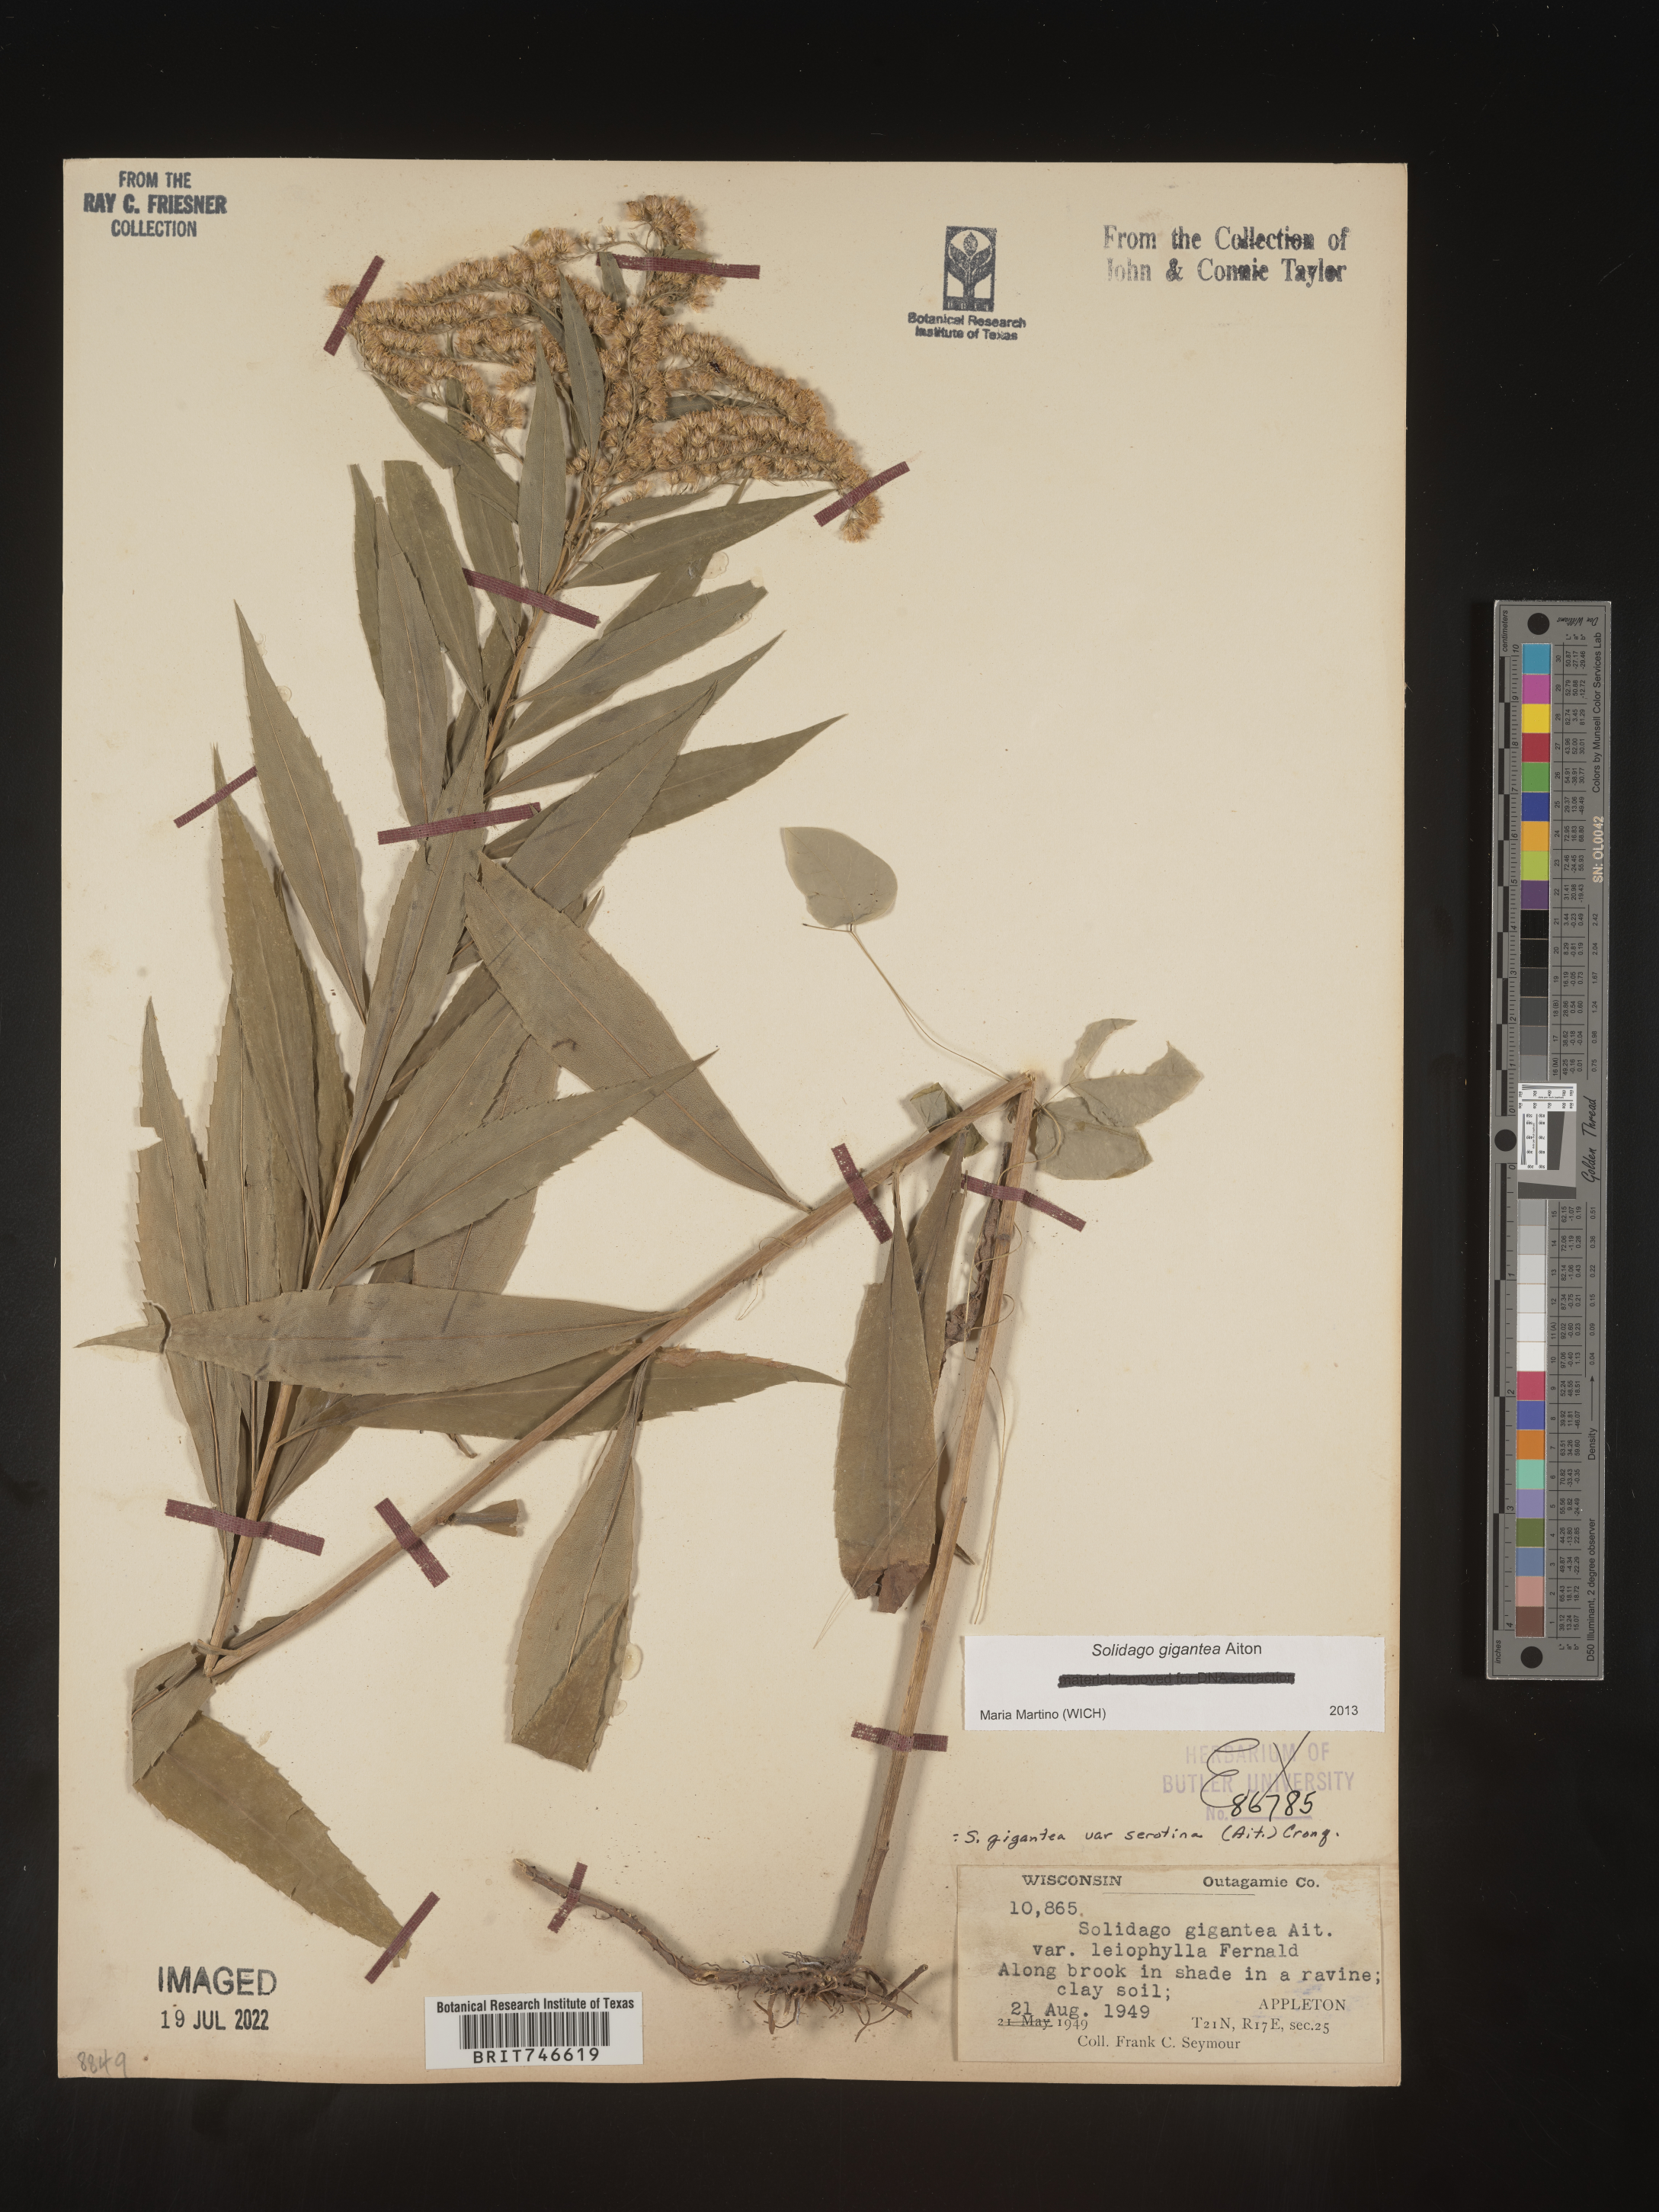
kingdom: Plantae
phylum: Tracheophyta
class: Magnoliopsida
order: Asterales
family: Asteraceae
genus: Solidago
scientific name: Solidago gigantea
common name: Giant goldenrod
